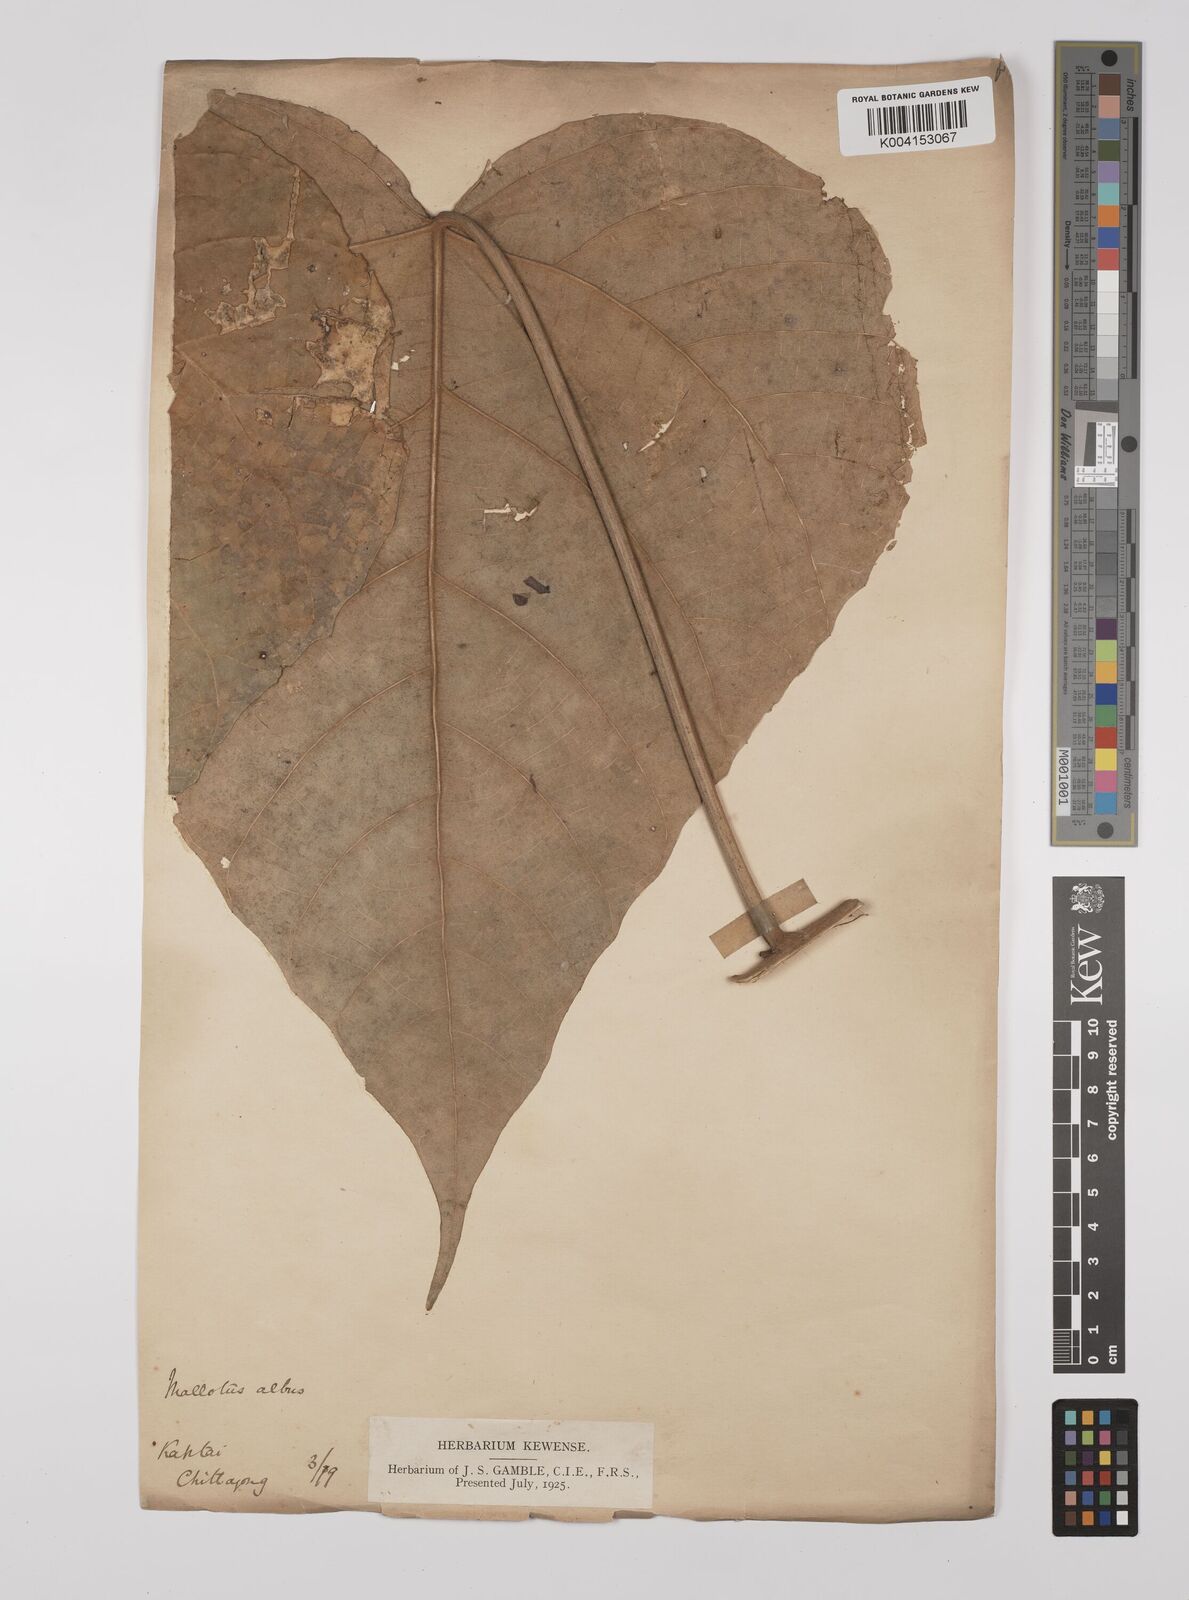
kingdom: Plantae
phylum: Tracheophyta
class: Magnoliopsida
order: Malpighiales
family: Euphorbiaceae
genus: Mallotus
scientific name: Mallotus tetracoccus
